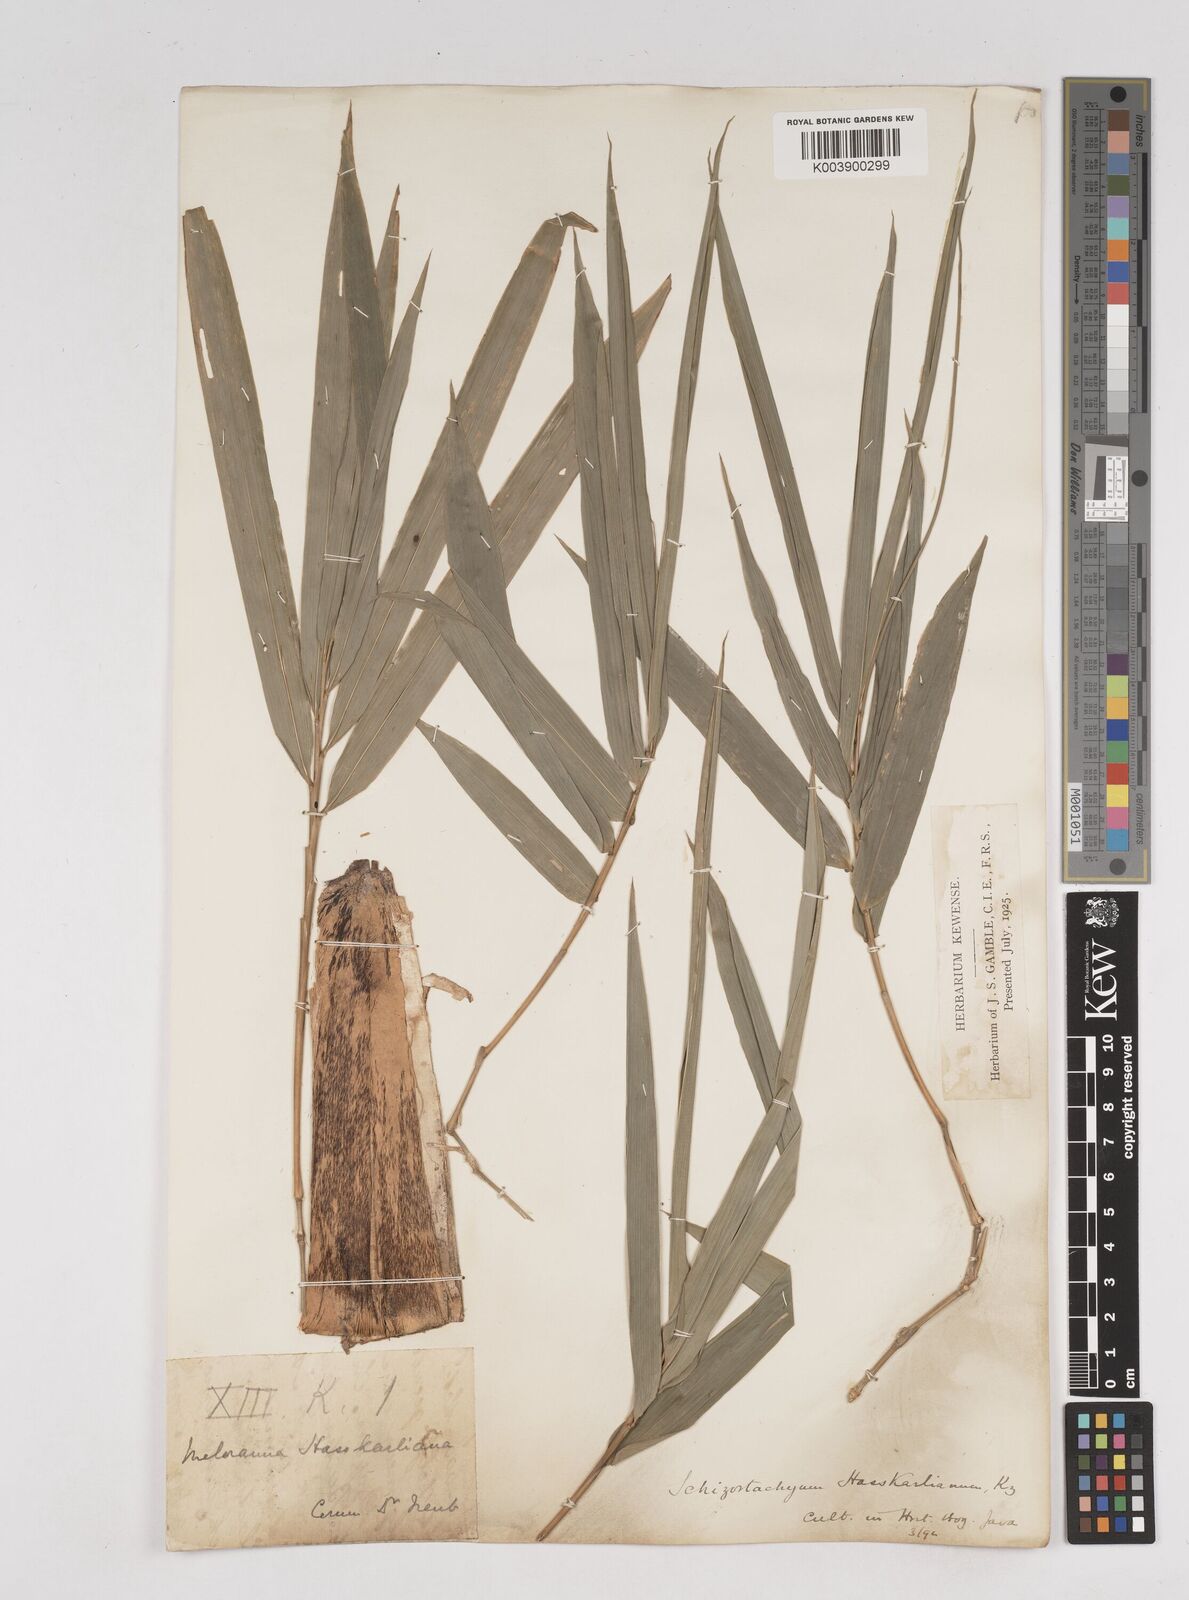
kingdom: Plantae
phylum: Tracheophyta
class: Liliopsida
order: Poales
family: Poaceae
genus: Gigantochloa
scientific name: Gigantochloa hasskarliana
